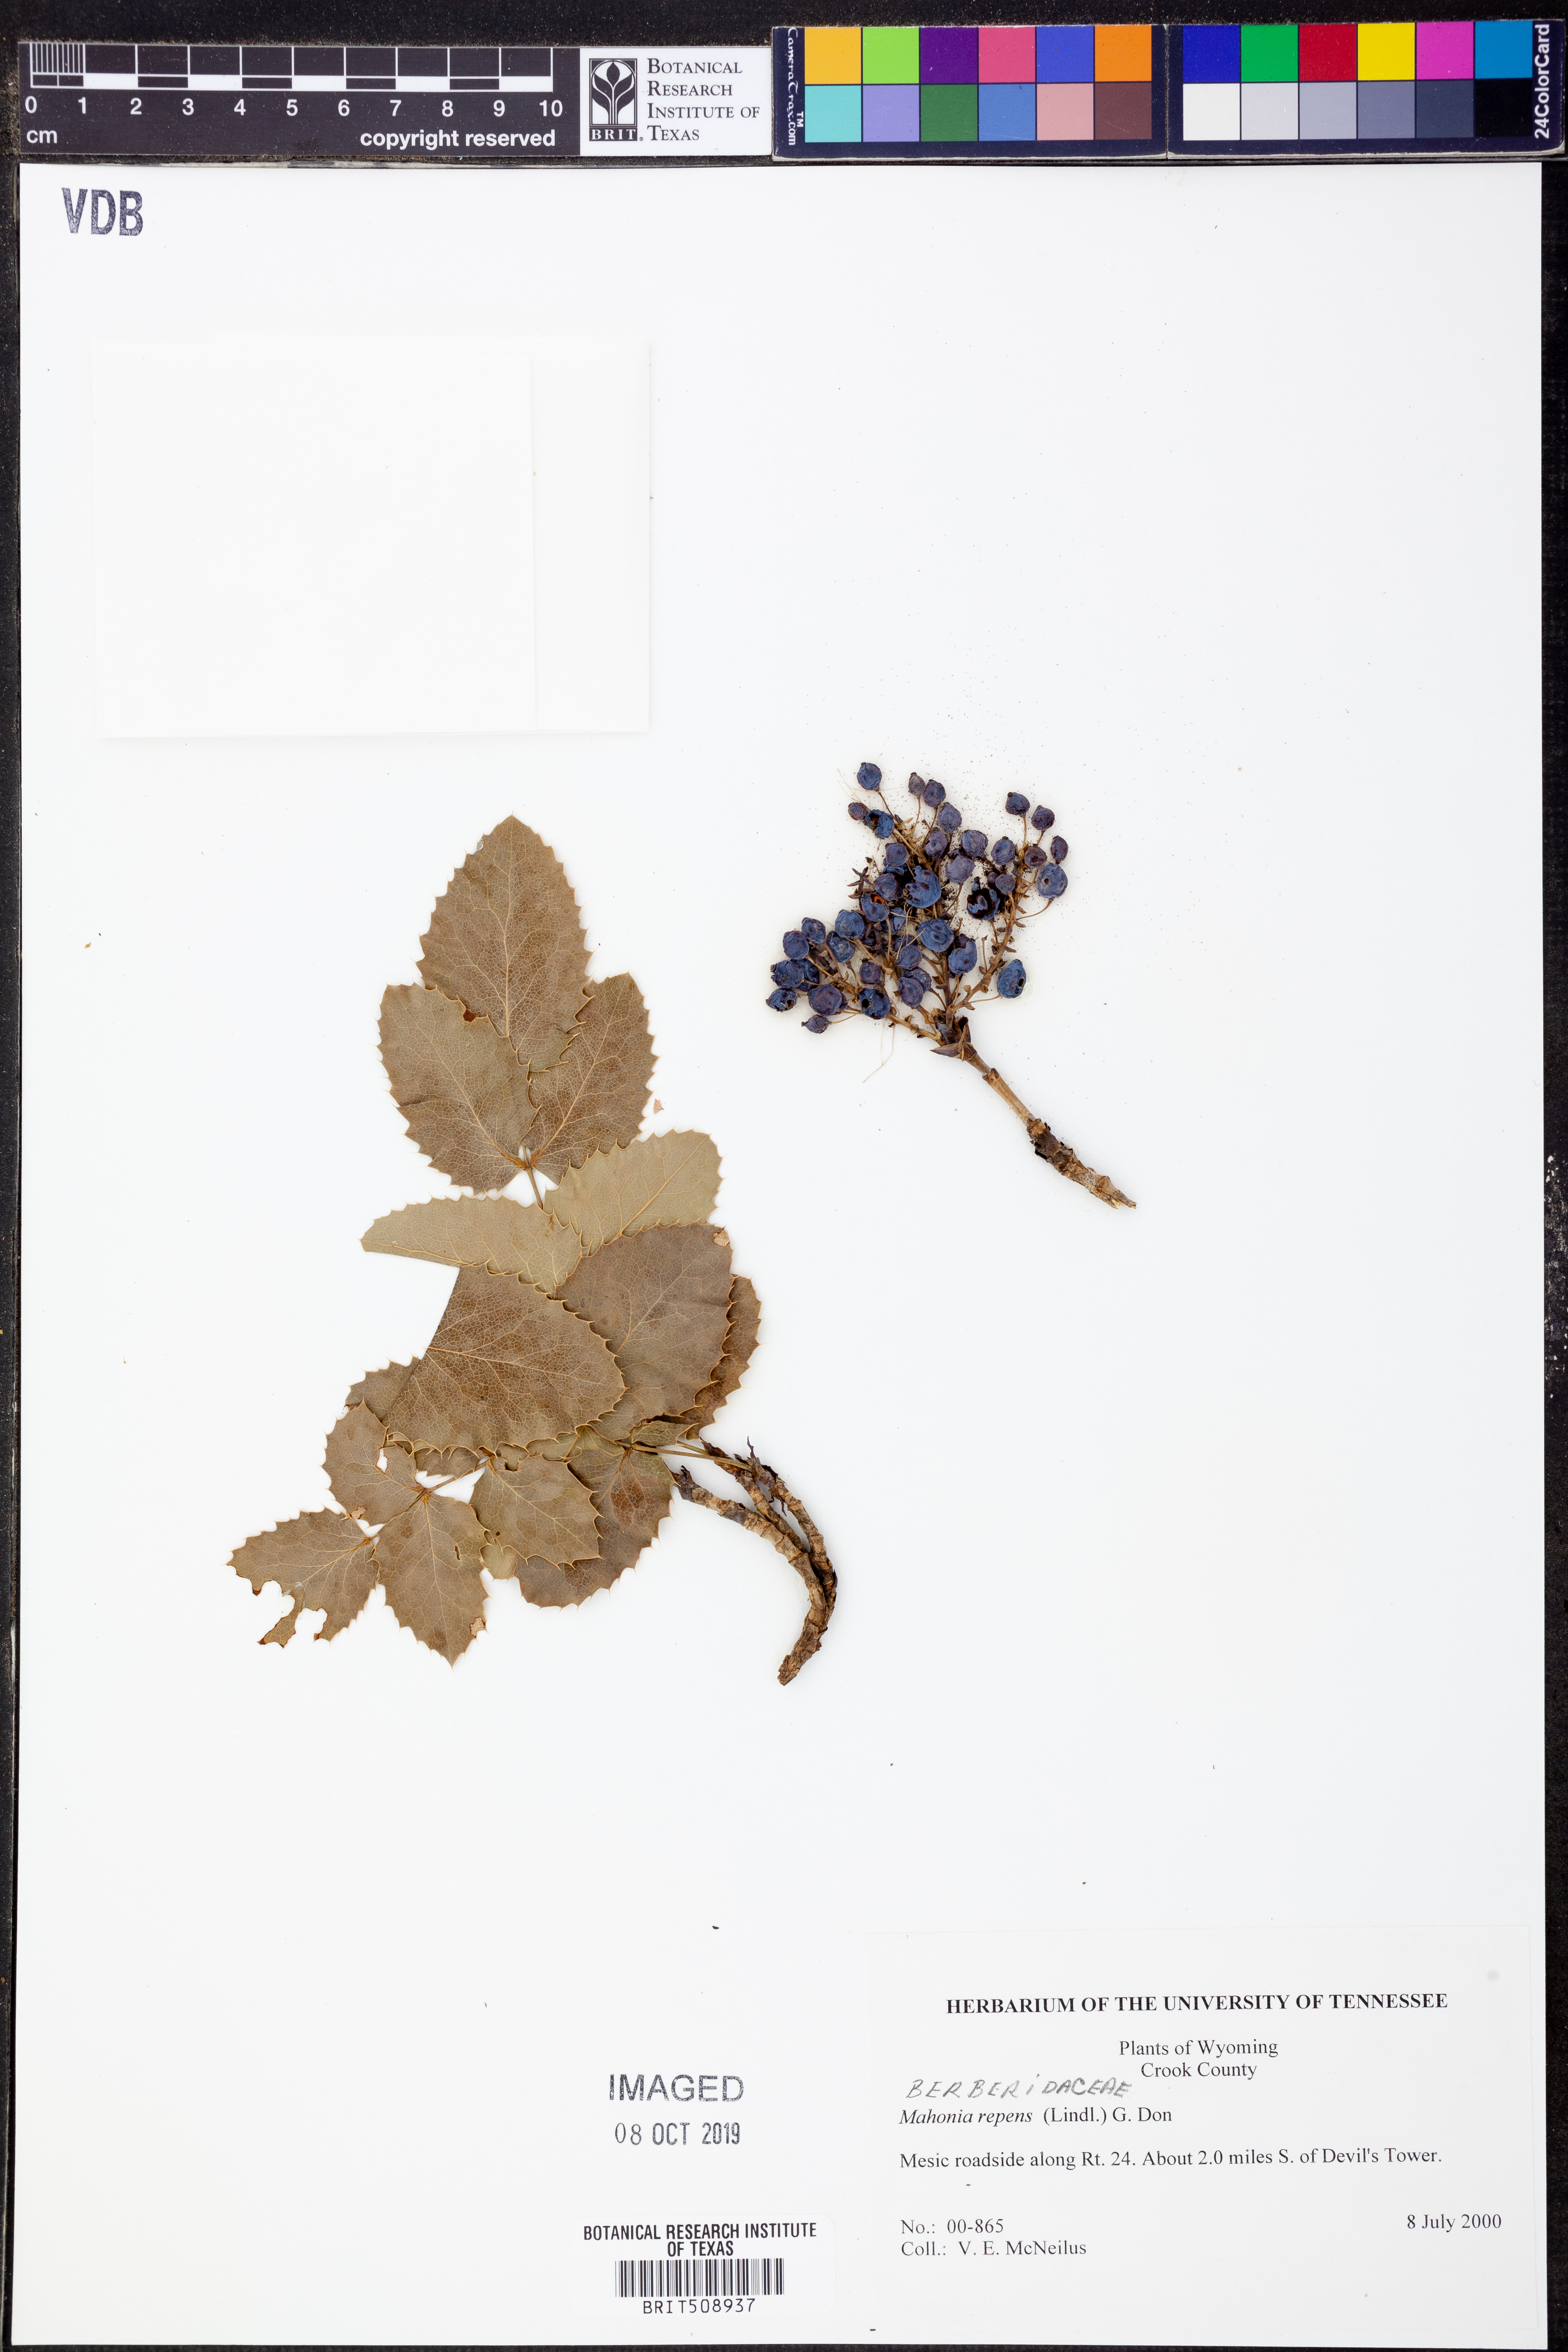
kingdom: Plantae
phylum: Tracheophyta
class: Magnoliopsida
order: Ranunculales
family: Berberidaceae
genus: Mahonia
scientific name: Mahonia repens
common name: Creeping oregon-grape
